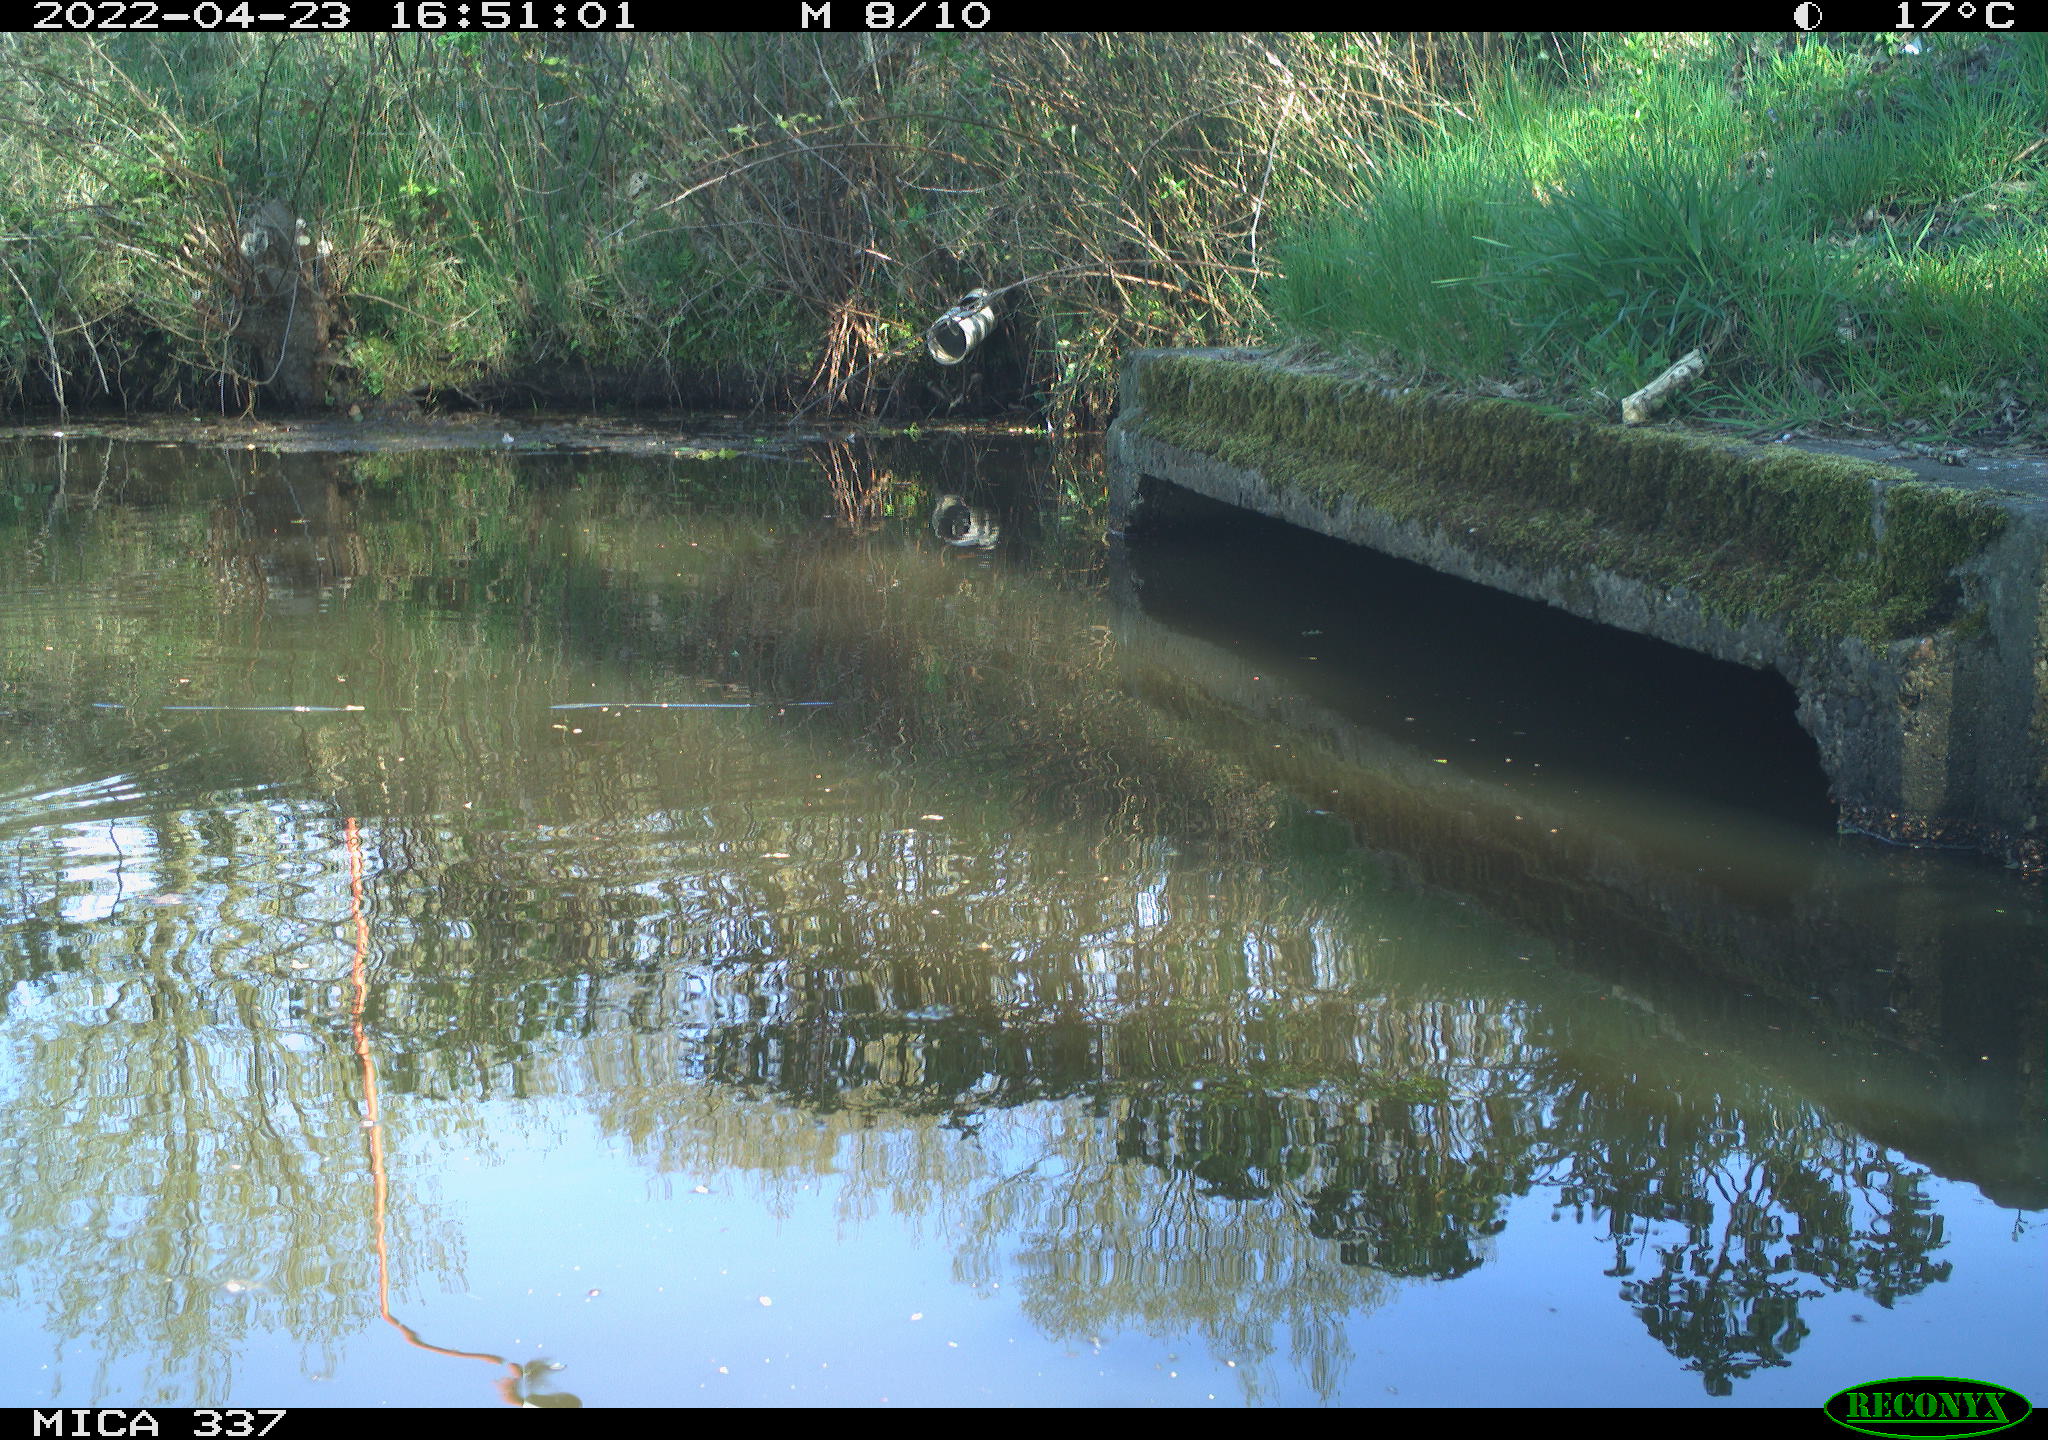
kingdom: Animalia
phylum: Chordata
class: Aves
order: Gruiformes
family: Rallidae
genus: Gallinula
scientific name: Gallinula chloropus
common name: Common moorhen
